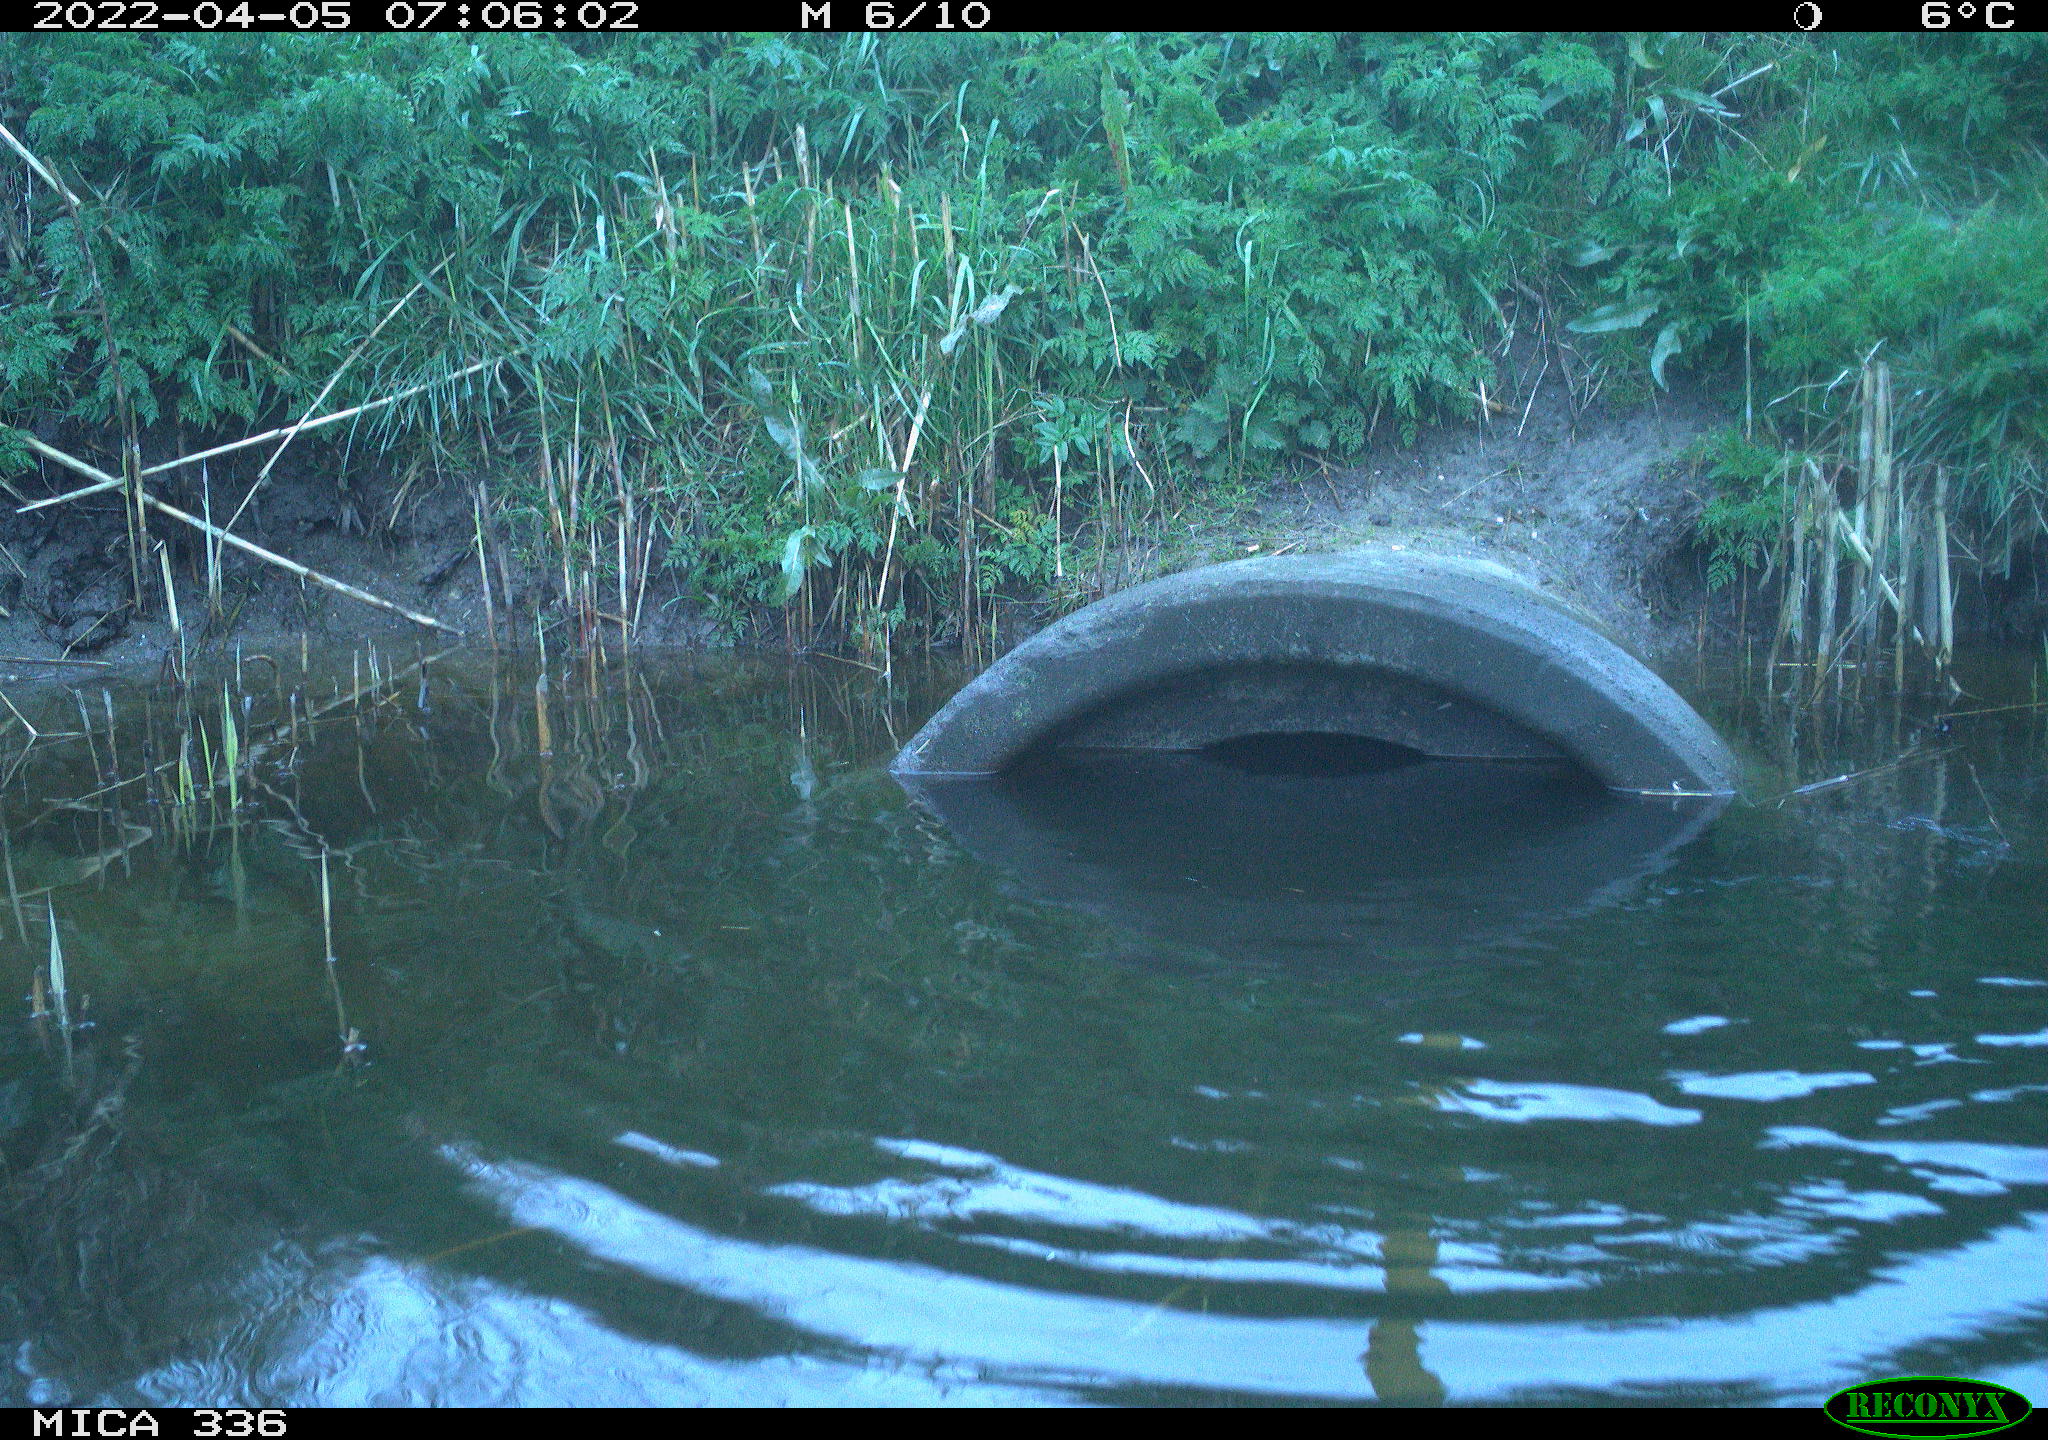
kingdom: Animalia
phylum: Chordata
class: Aves
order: Pelecaniformes
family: Ardeidae
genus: Ardea
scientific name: Ardea cinerea
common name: Grey heron
